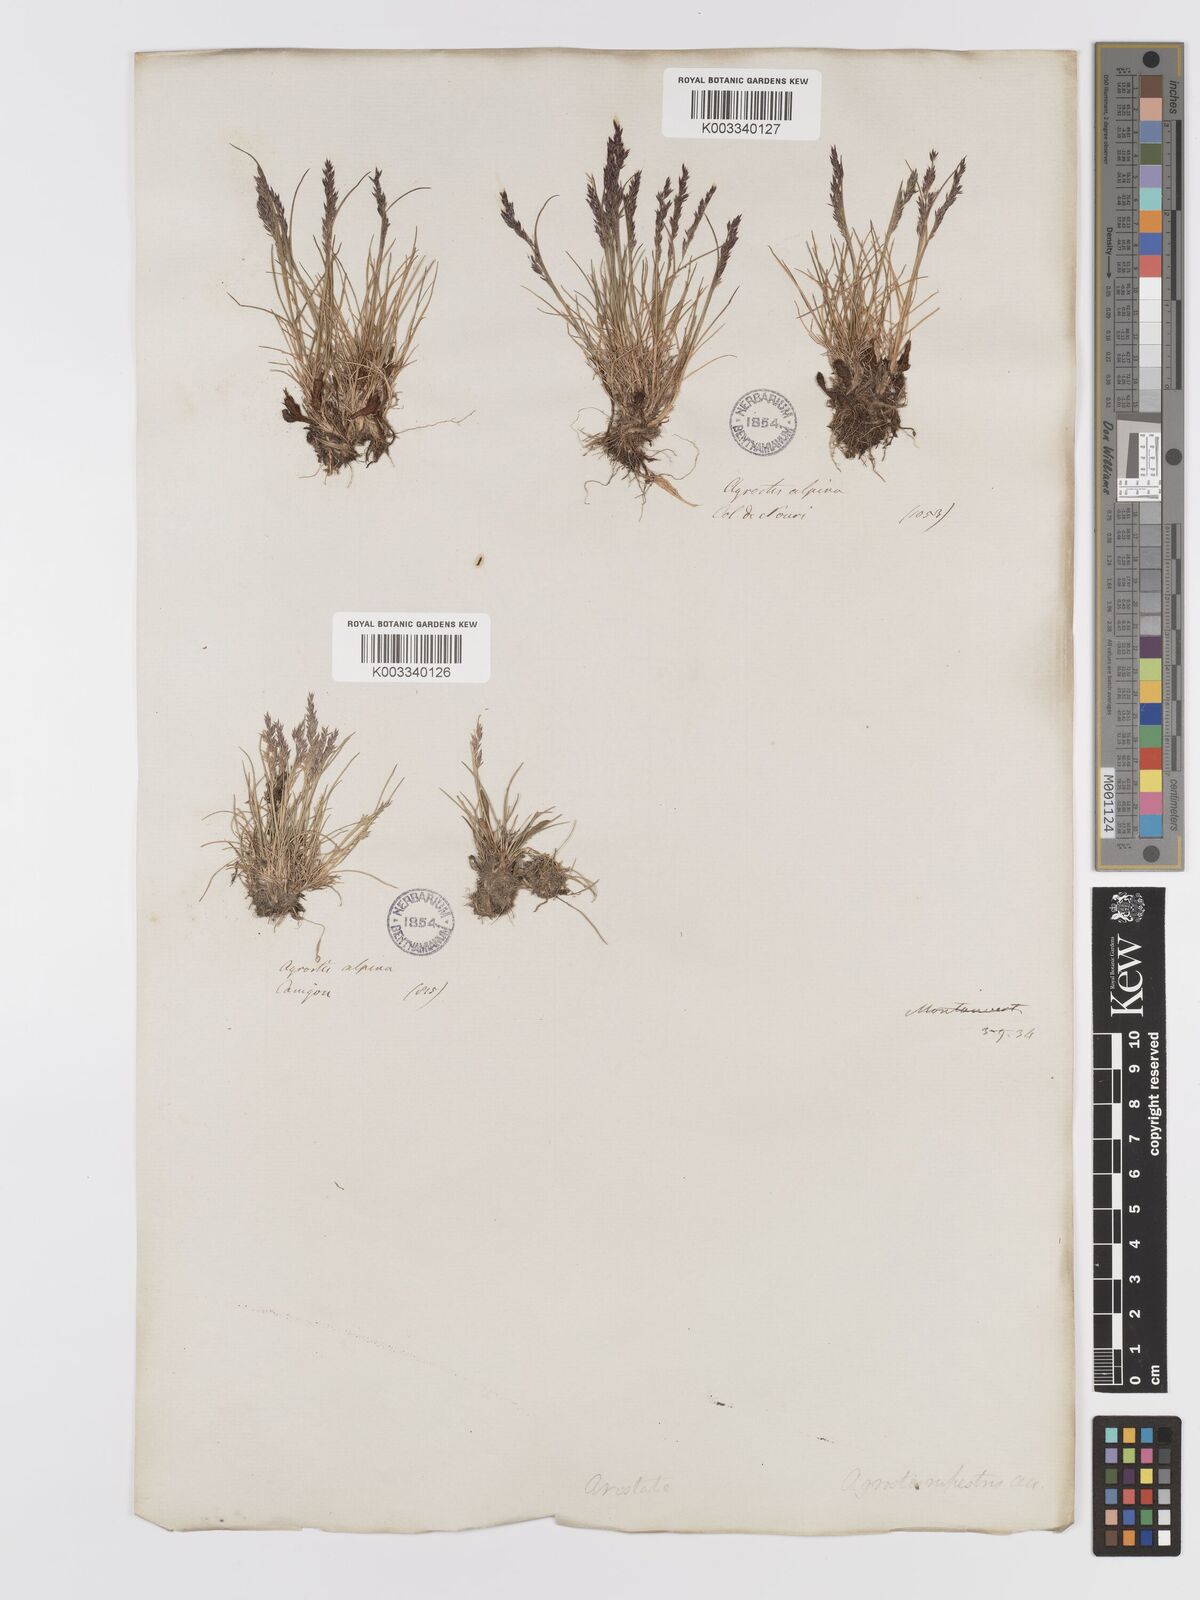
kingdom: Plantae
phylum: Tracheophyta
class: Liliopsida
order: Poales
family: Poaceae
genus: Agrostis
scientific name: Agrostis rupestris
